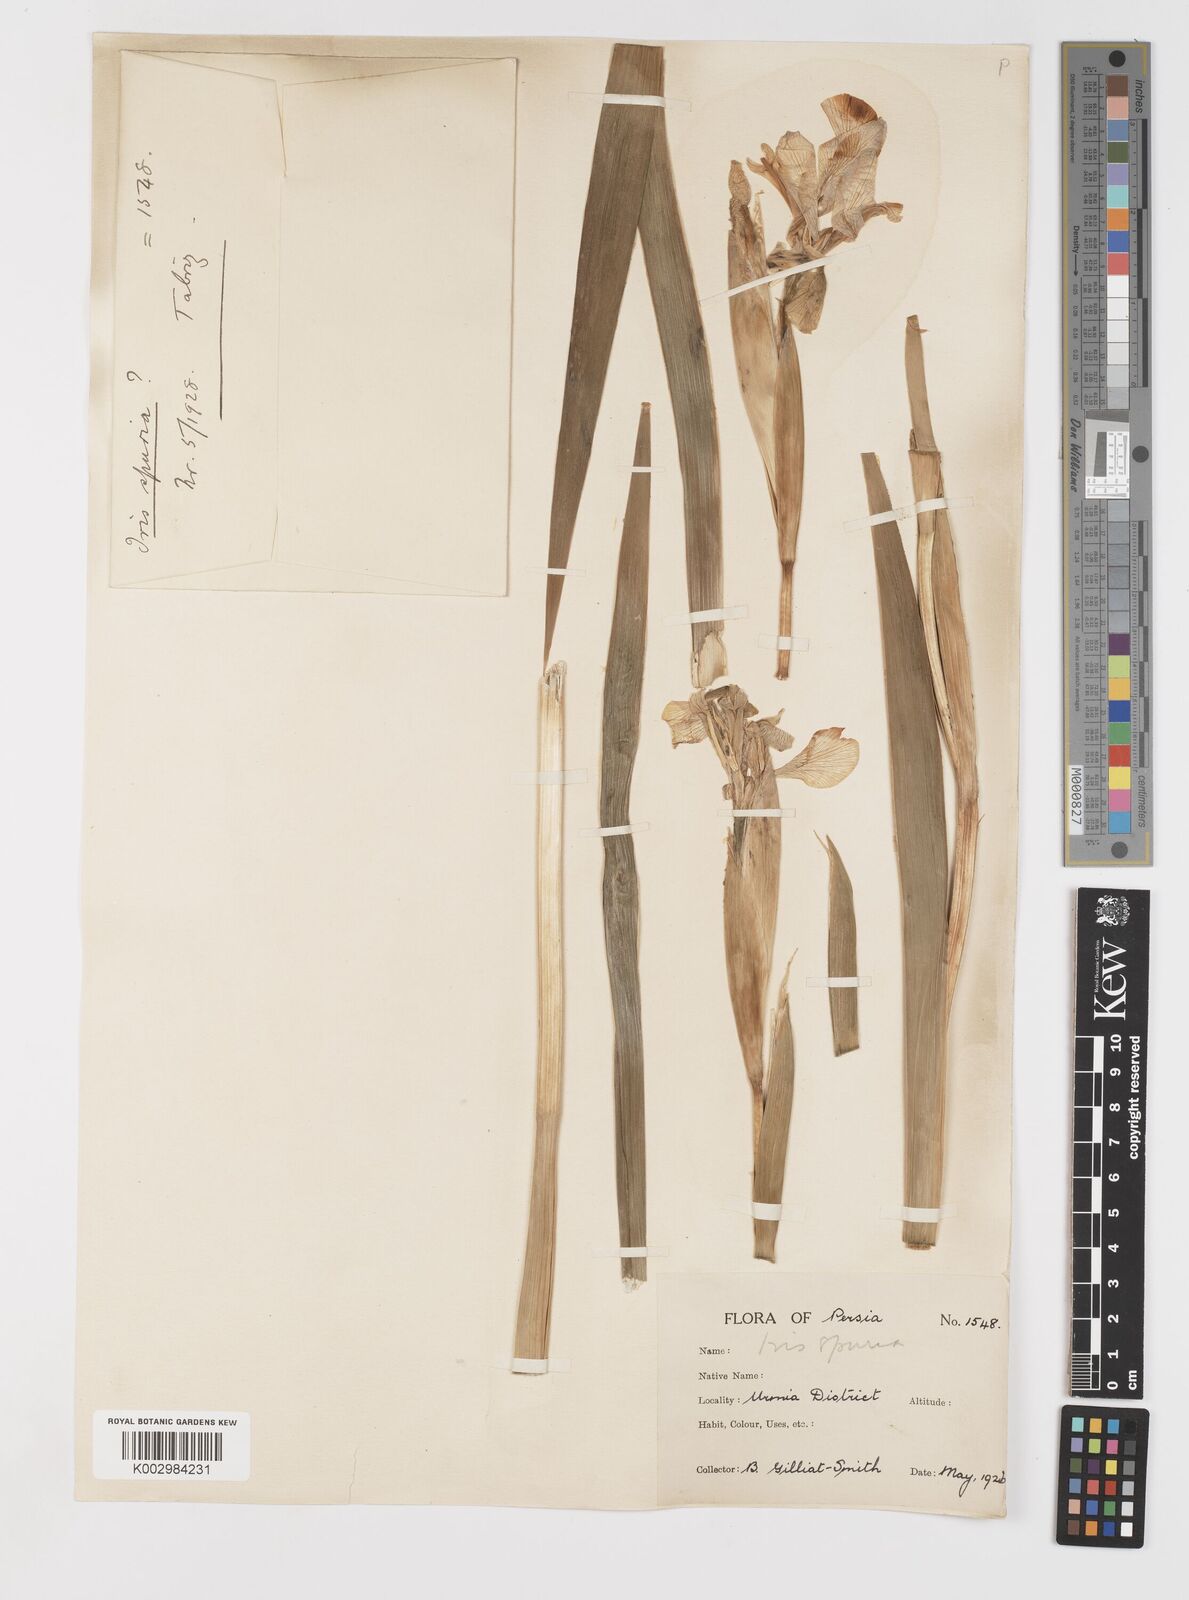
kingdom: Plantae
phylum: Tracheophyta
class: Liliopsida
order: Asparagales
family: Iridaceae
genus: Iris
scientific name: Iris spuria
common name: Blue iris
